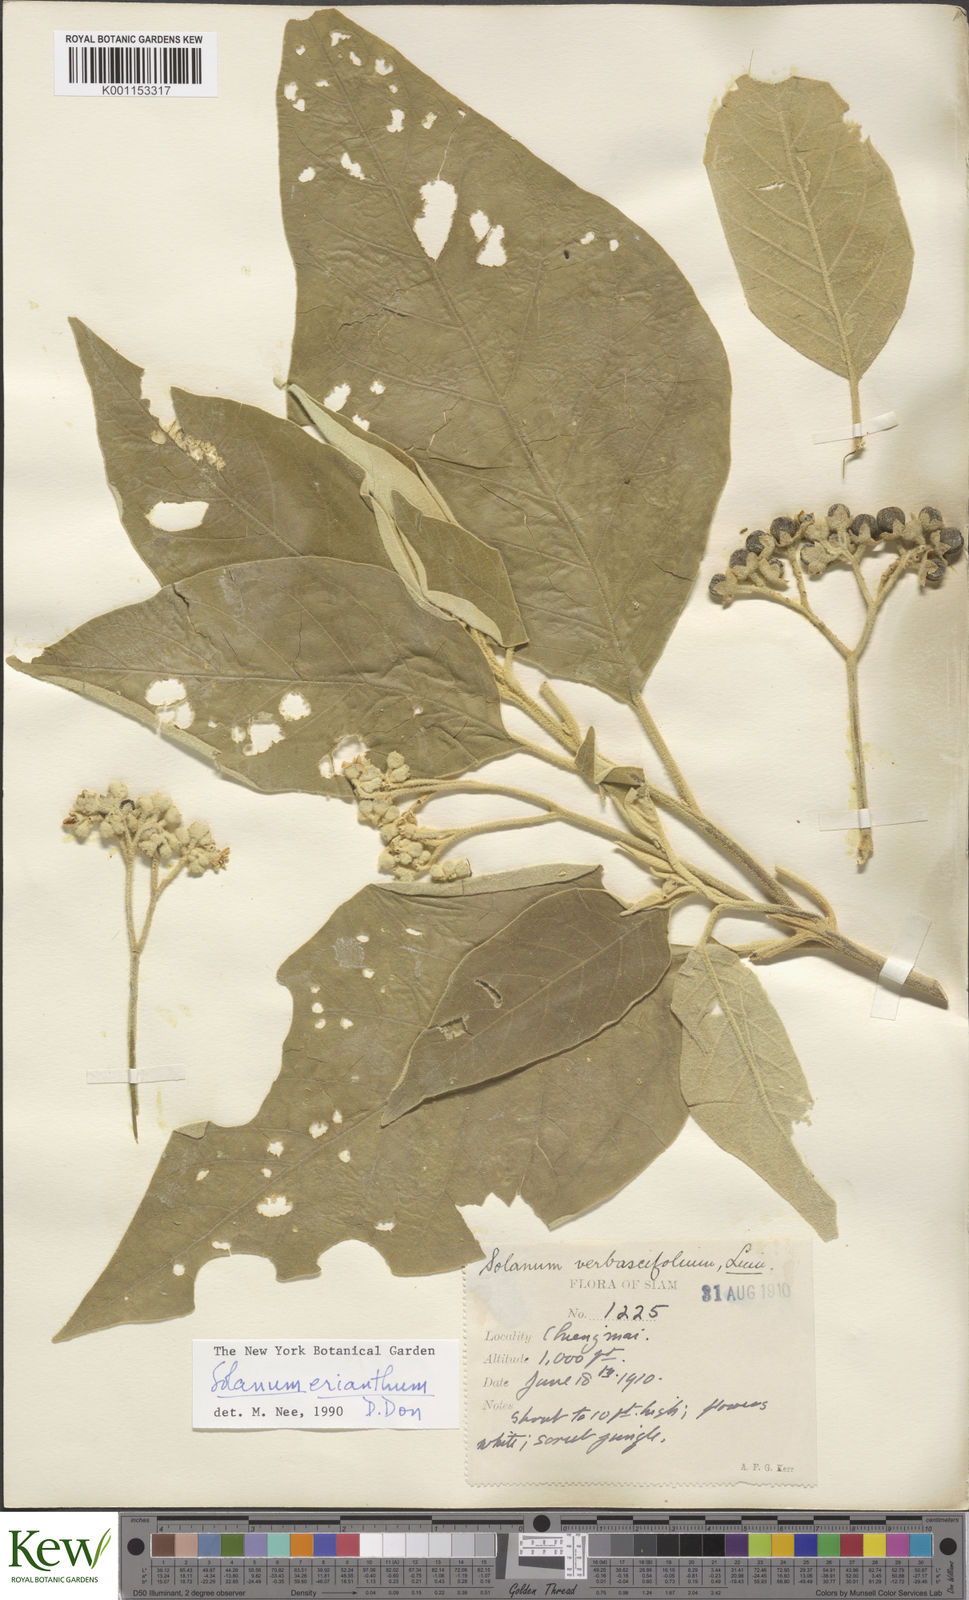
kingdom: Plantae
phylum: Tracheophyta
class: Magnoliopsida
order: Solanales
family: Solanaceae
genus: Solanum
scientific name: Solanum erianthum
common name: Tobacco-tree
